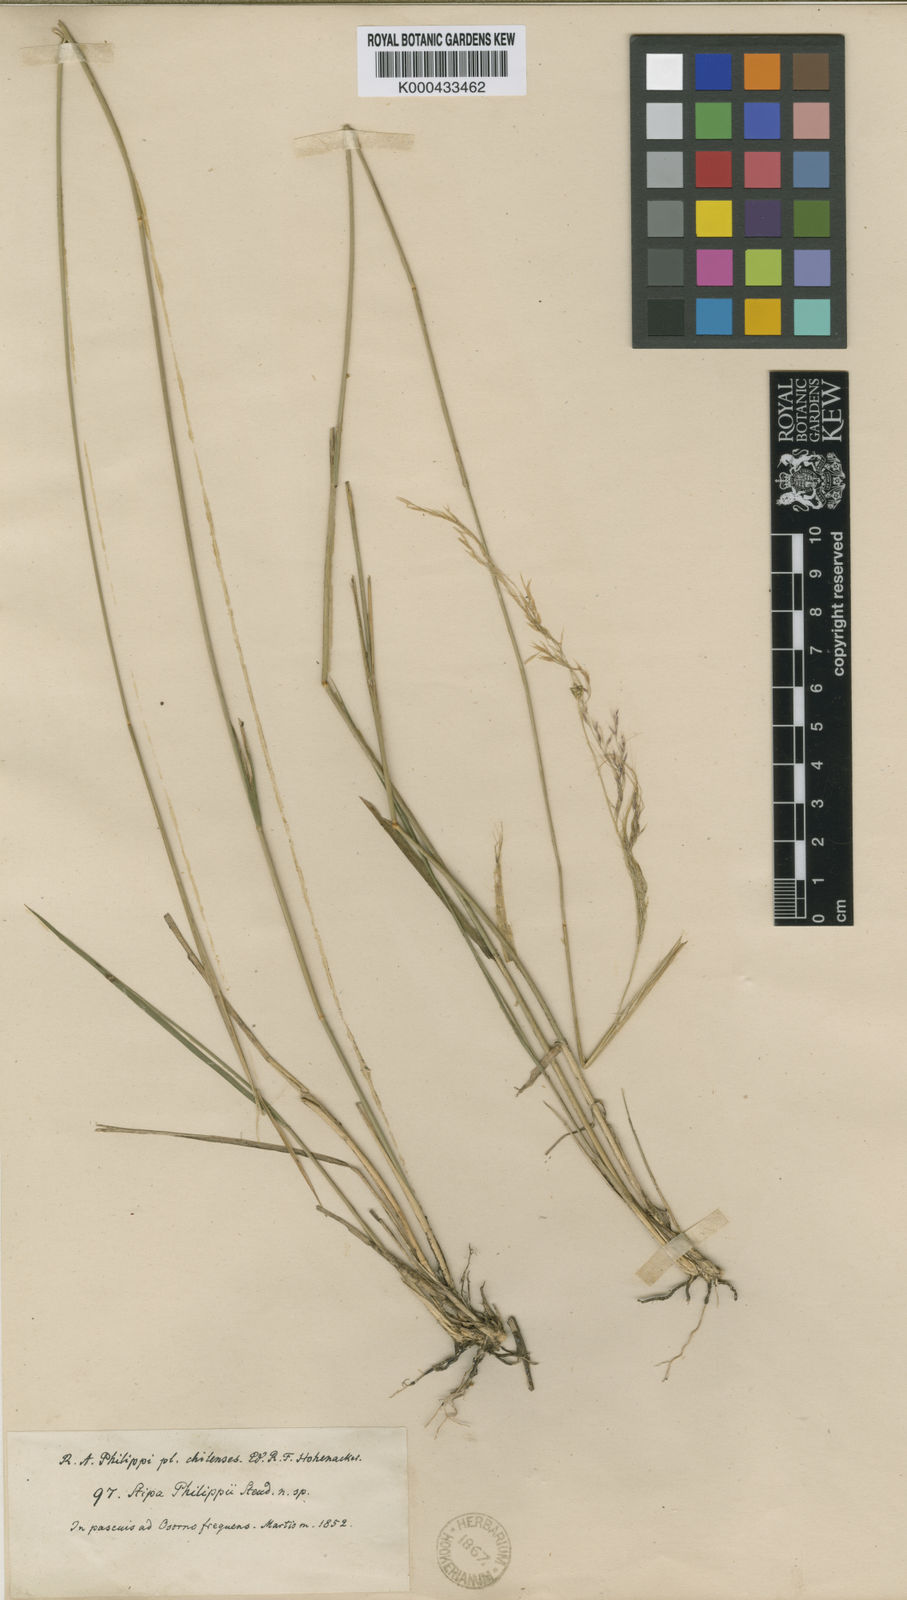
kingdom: Plantae
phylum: Tracheophyta
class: Liliopsida
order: Poales
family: Poaceae
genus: Nassella
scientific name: Nassella philippii
